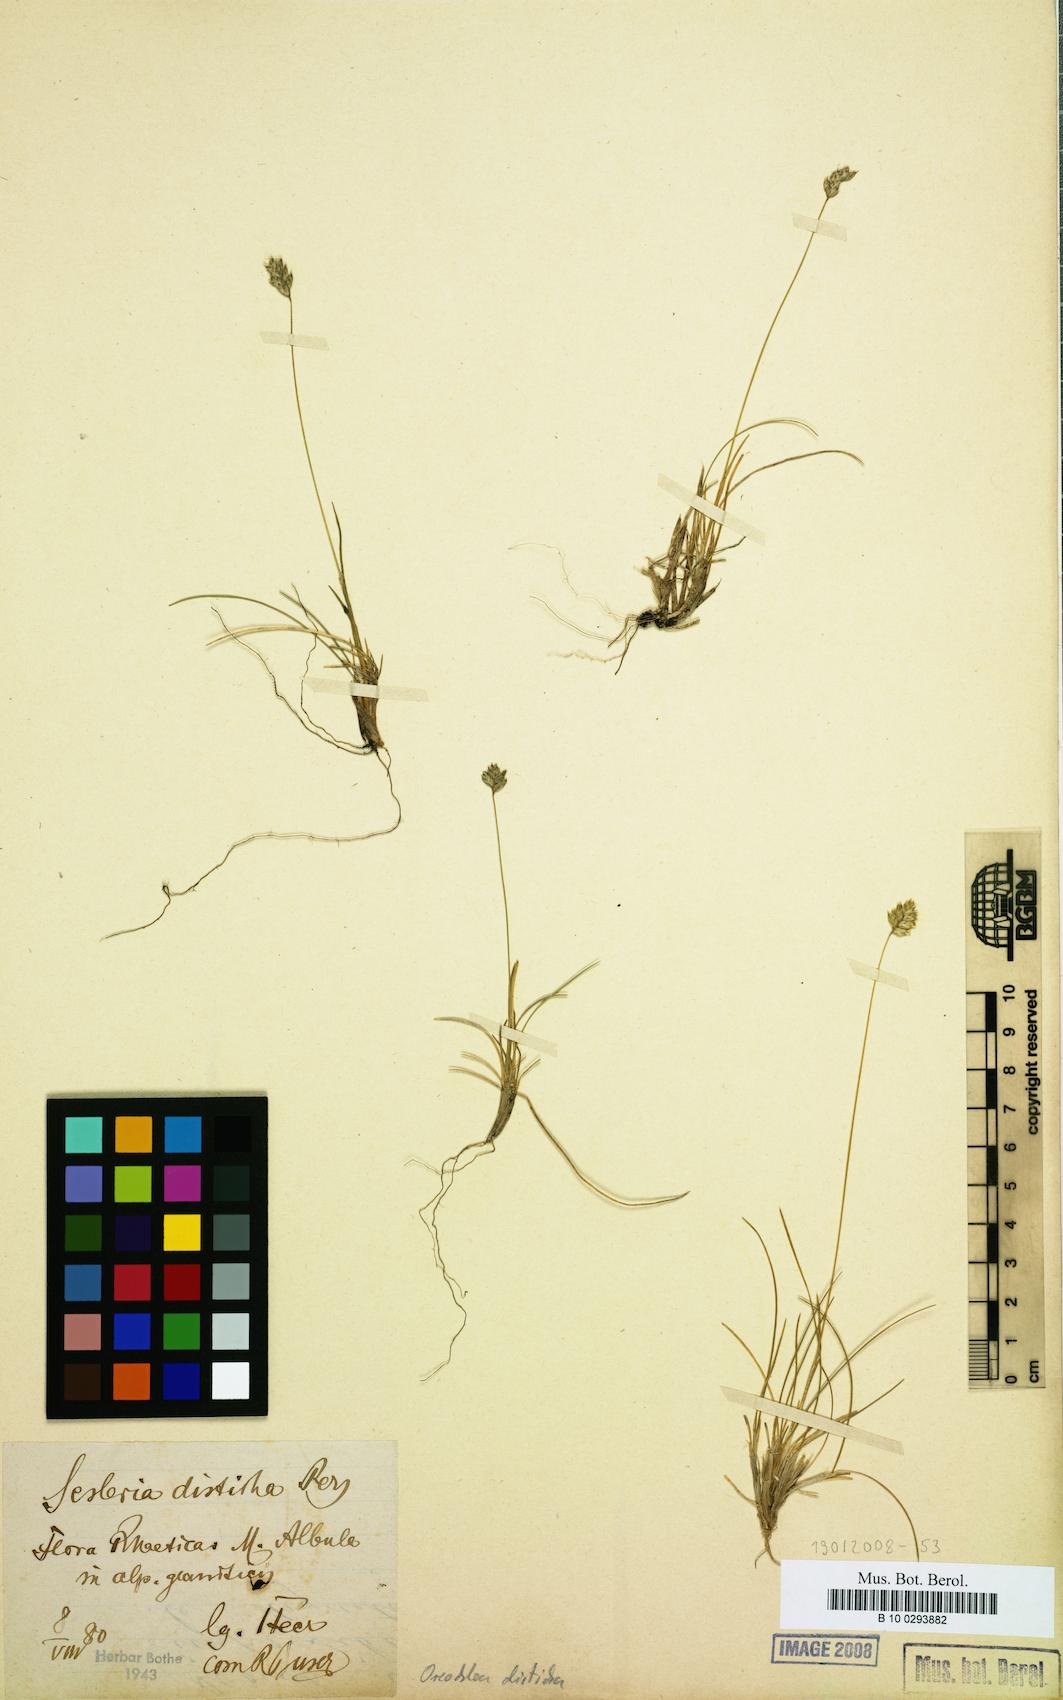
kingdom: Plantae
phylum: Tracheophyta
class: Liliopsida
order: Poales
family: Poaceae
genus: Oreochloa
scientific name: Oreochloa disticha
